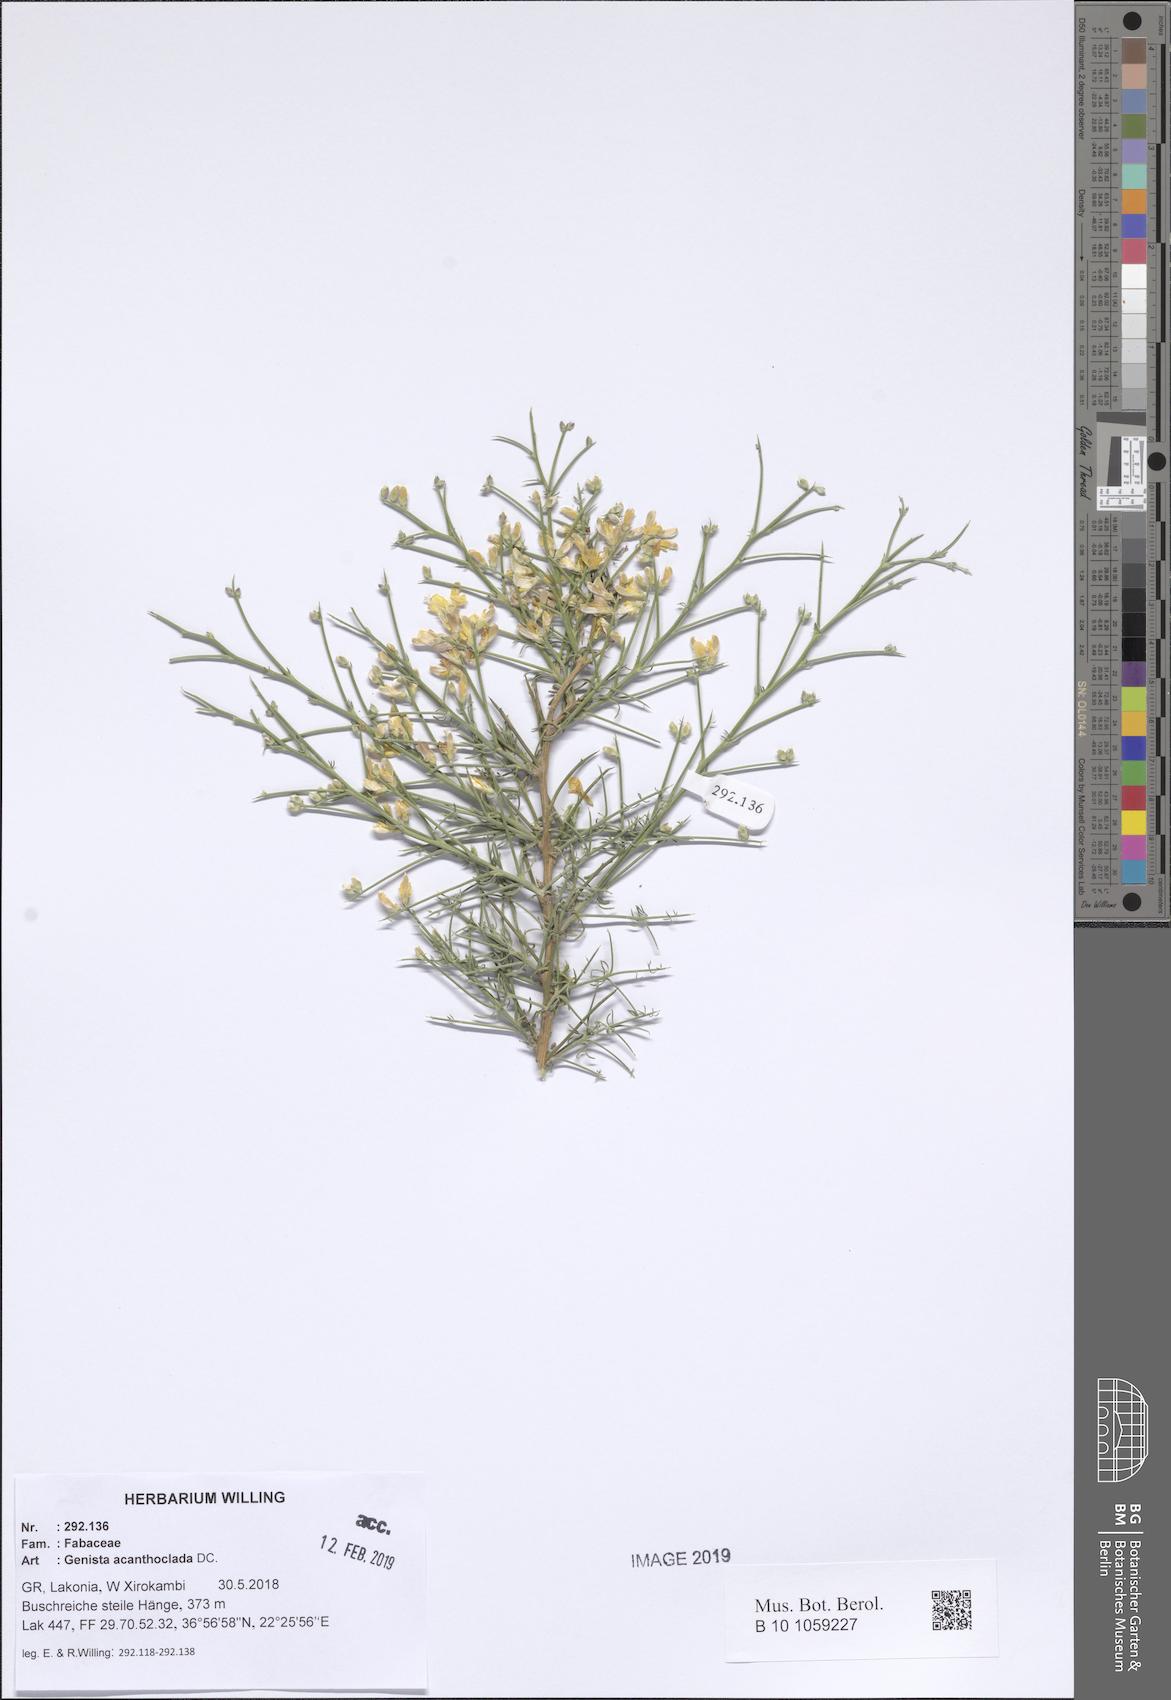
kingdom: Plantae
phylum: Tracheophyta
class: Magnoliopsida
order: Fabales
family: Fabaceae
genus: Genista
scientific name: Genista acanthoclada
